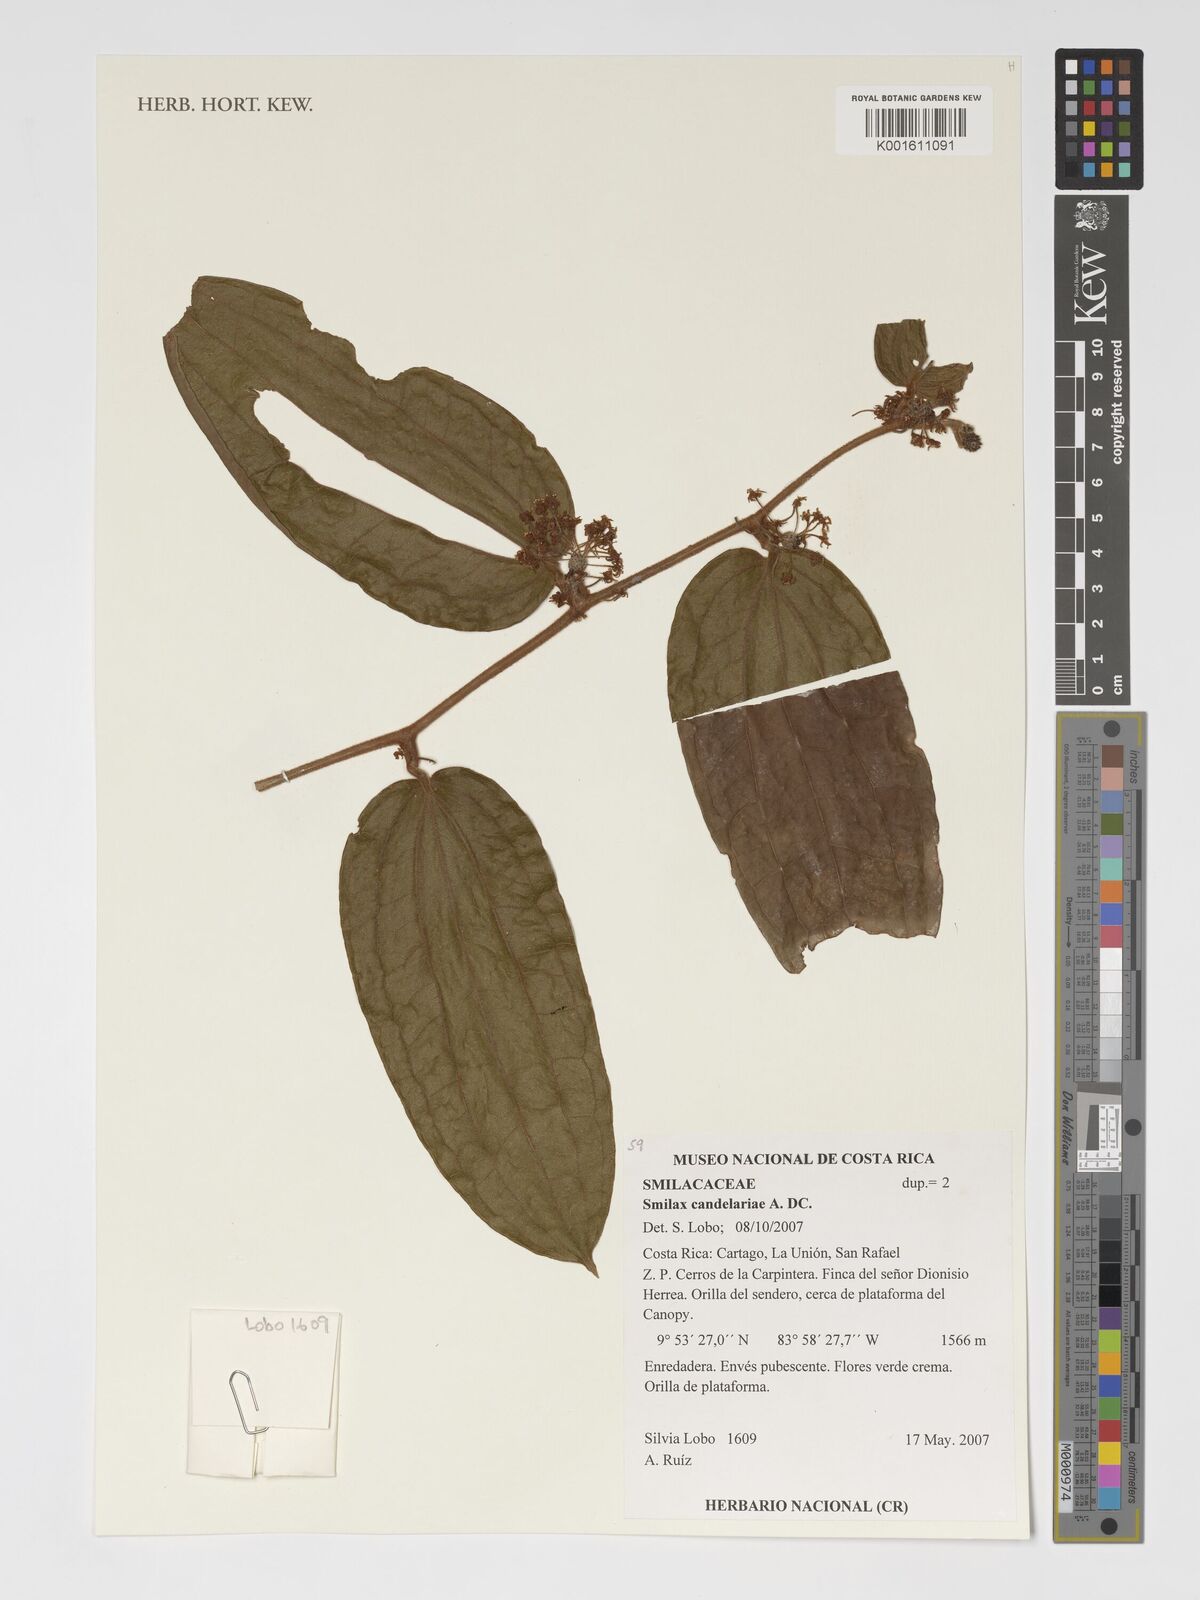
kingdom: Plantae
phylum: Tracheophyta
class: Liliopsida
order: Liliales
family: Smilacaceae
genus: Smilax
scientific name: Smilax mollis
